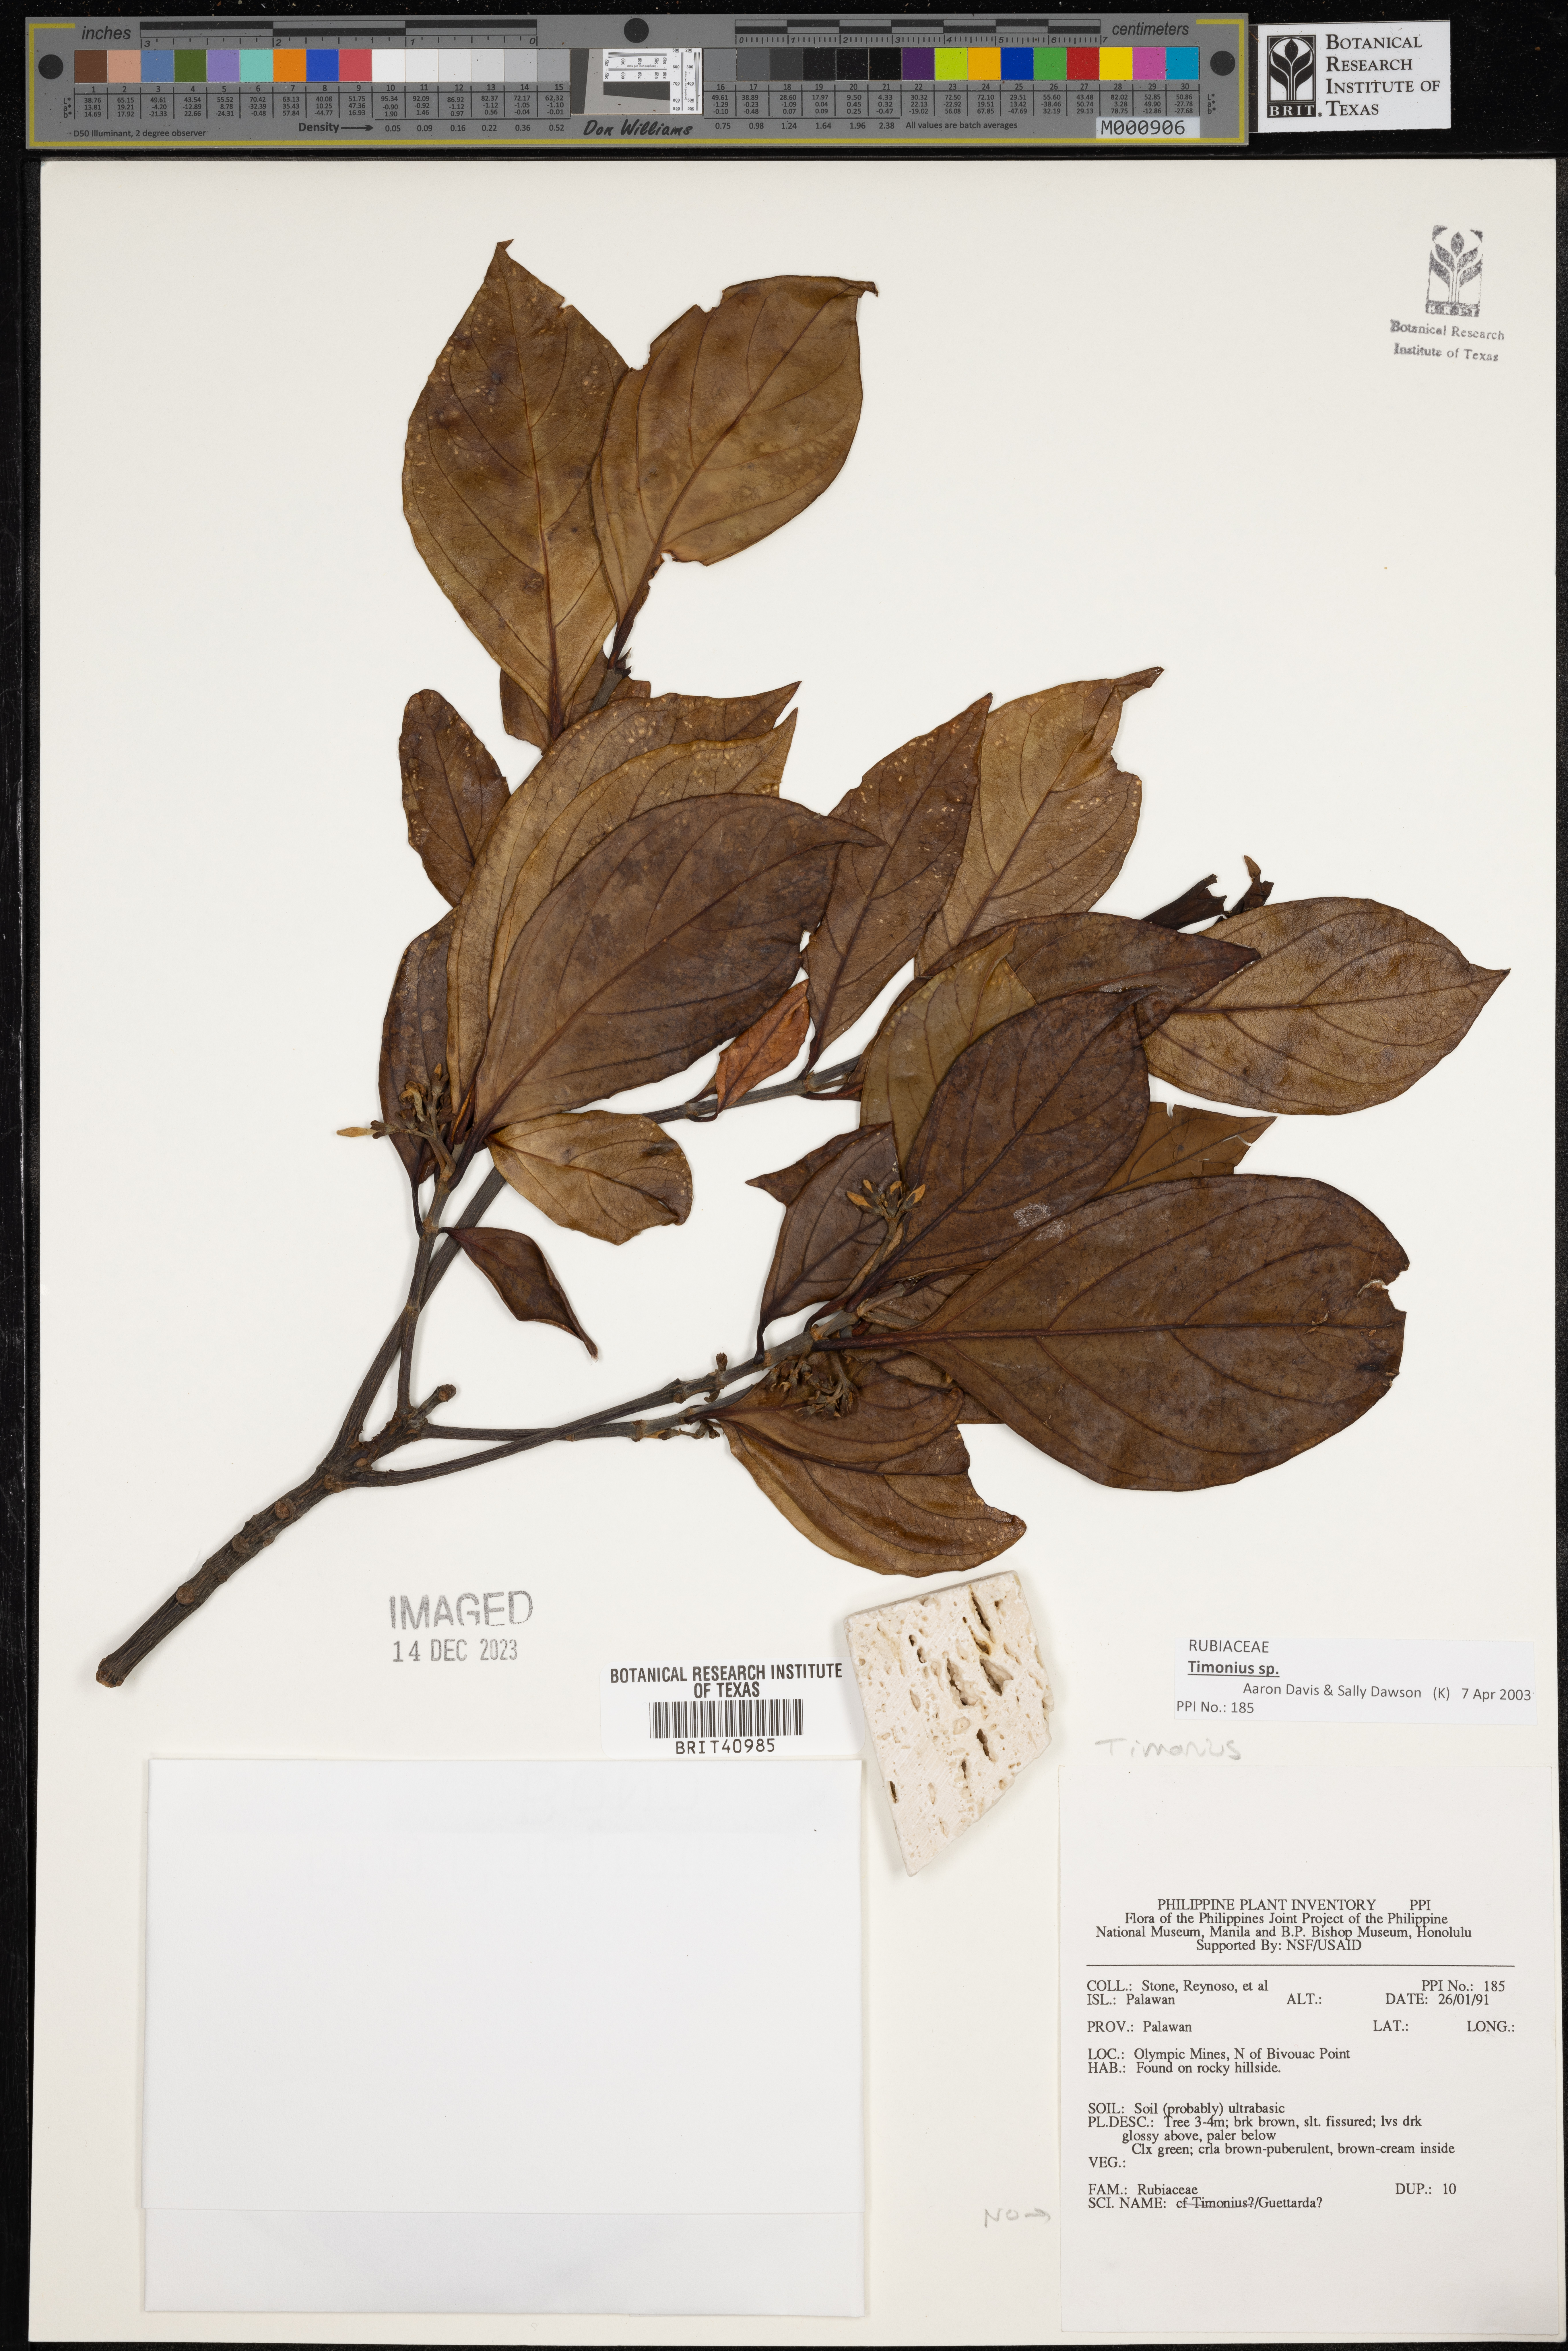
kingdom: Plantae
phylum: Tracheophyta
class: Magnoliopsida
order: Gentianales
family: Rubiaceae
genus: Timonius
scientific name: Timonius
